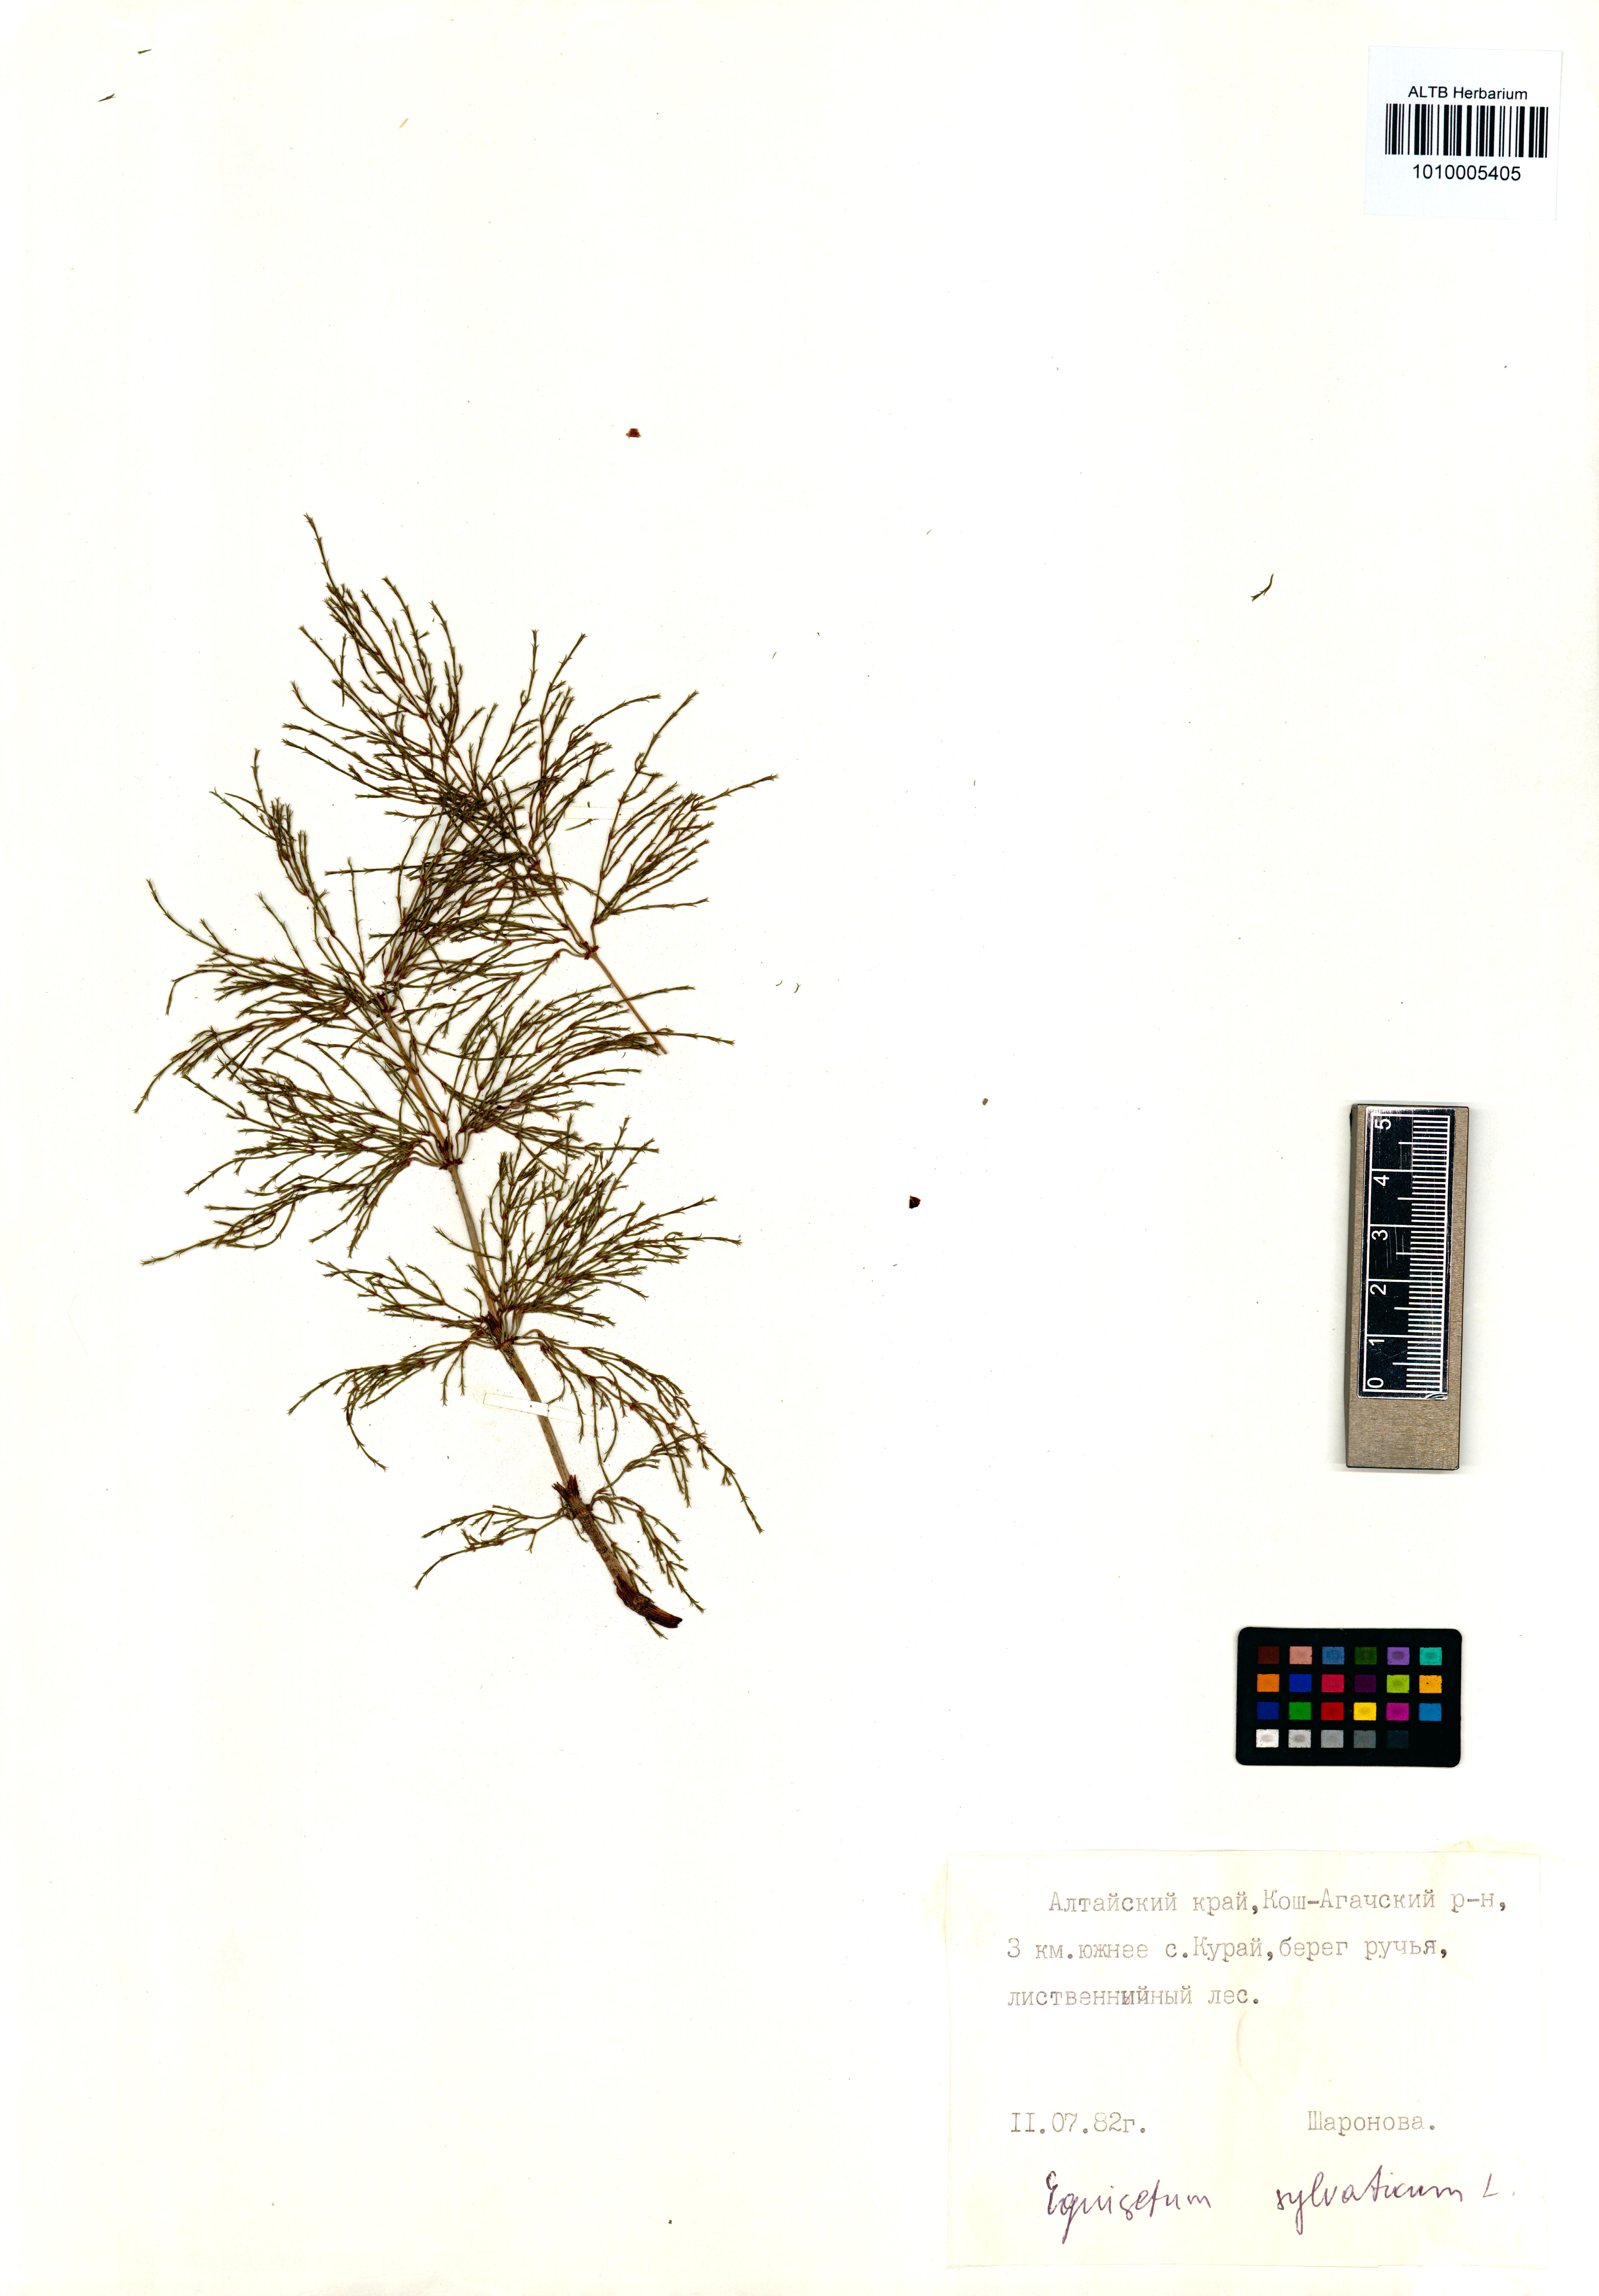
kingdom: Plantae
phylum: Tracheophyta
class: Polypodiopsida
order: Equisetales
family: Equisetaceae
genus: Equisetum
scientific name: Equisetum sylvaticum
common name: Wood horsetail
